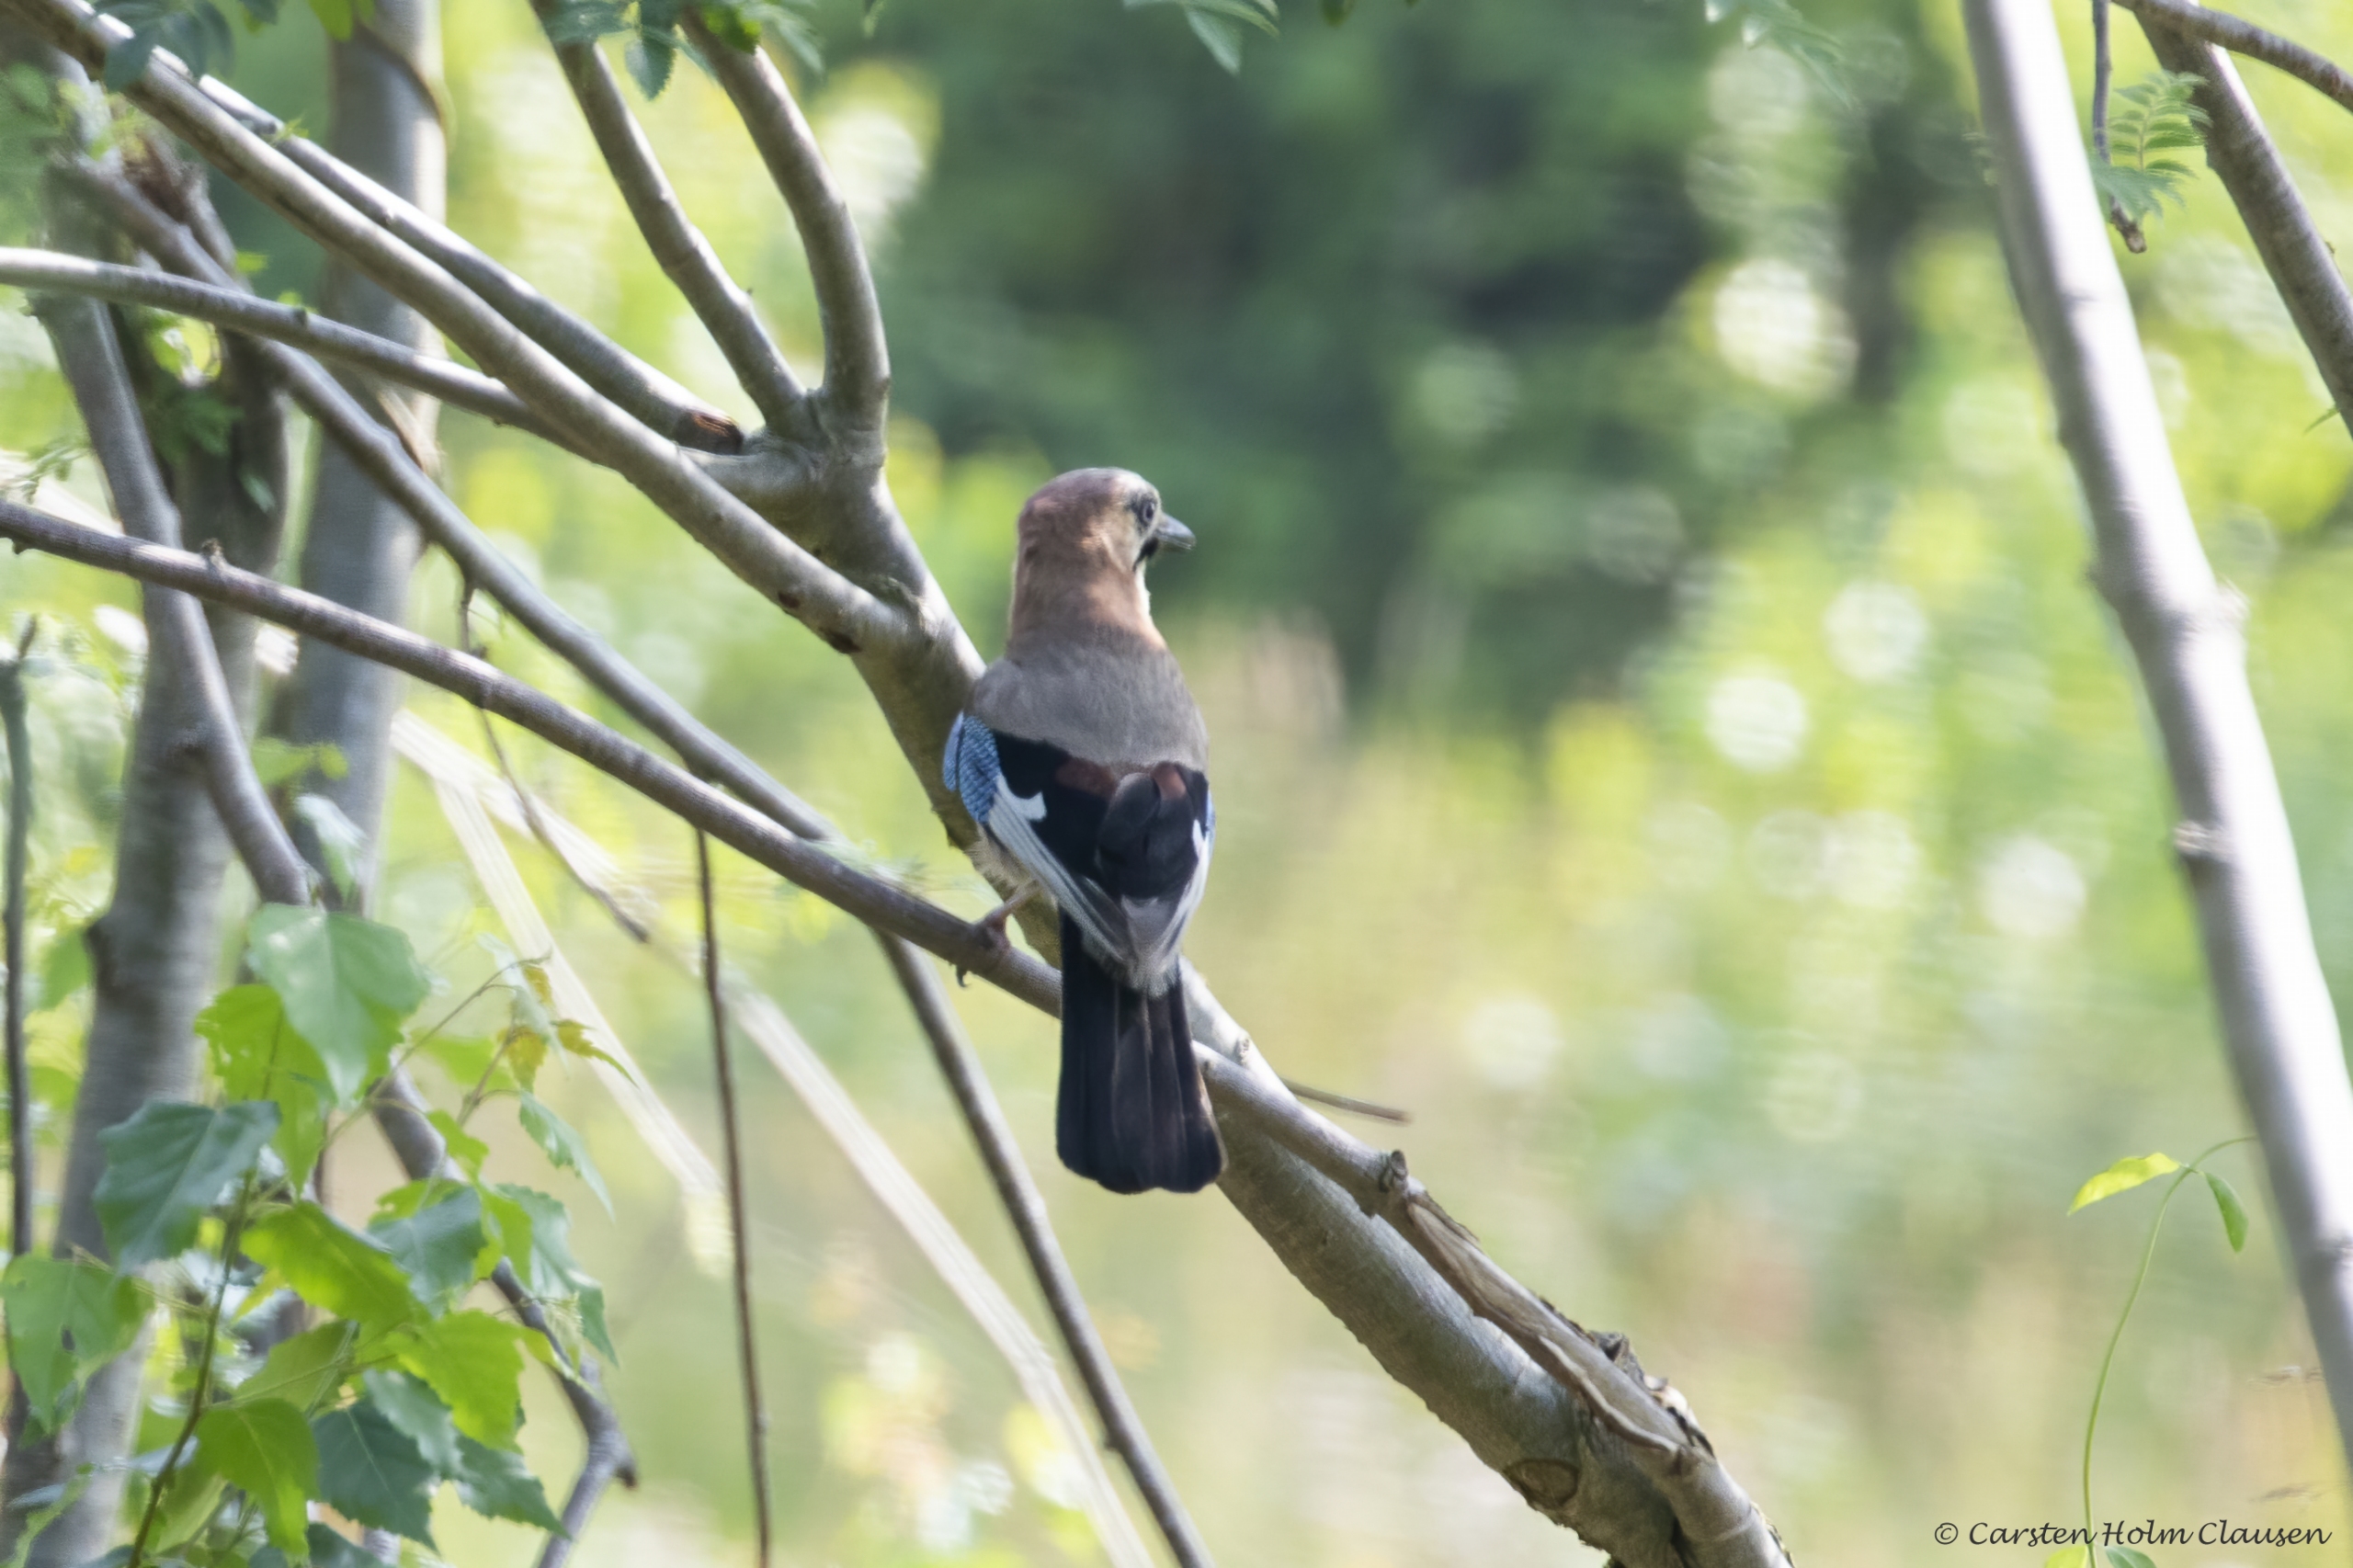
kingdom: Animalia
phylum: Chordata
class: Aves
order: Passeriformes
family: Corvidae
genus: Garrulus
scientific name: Garrulus glandarius
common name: Skovskade
